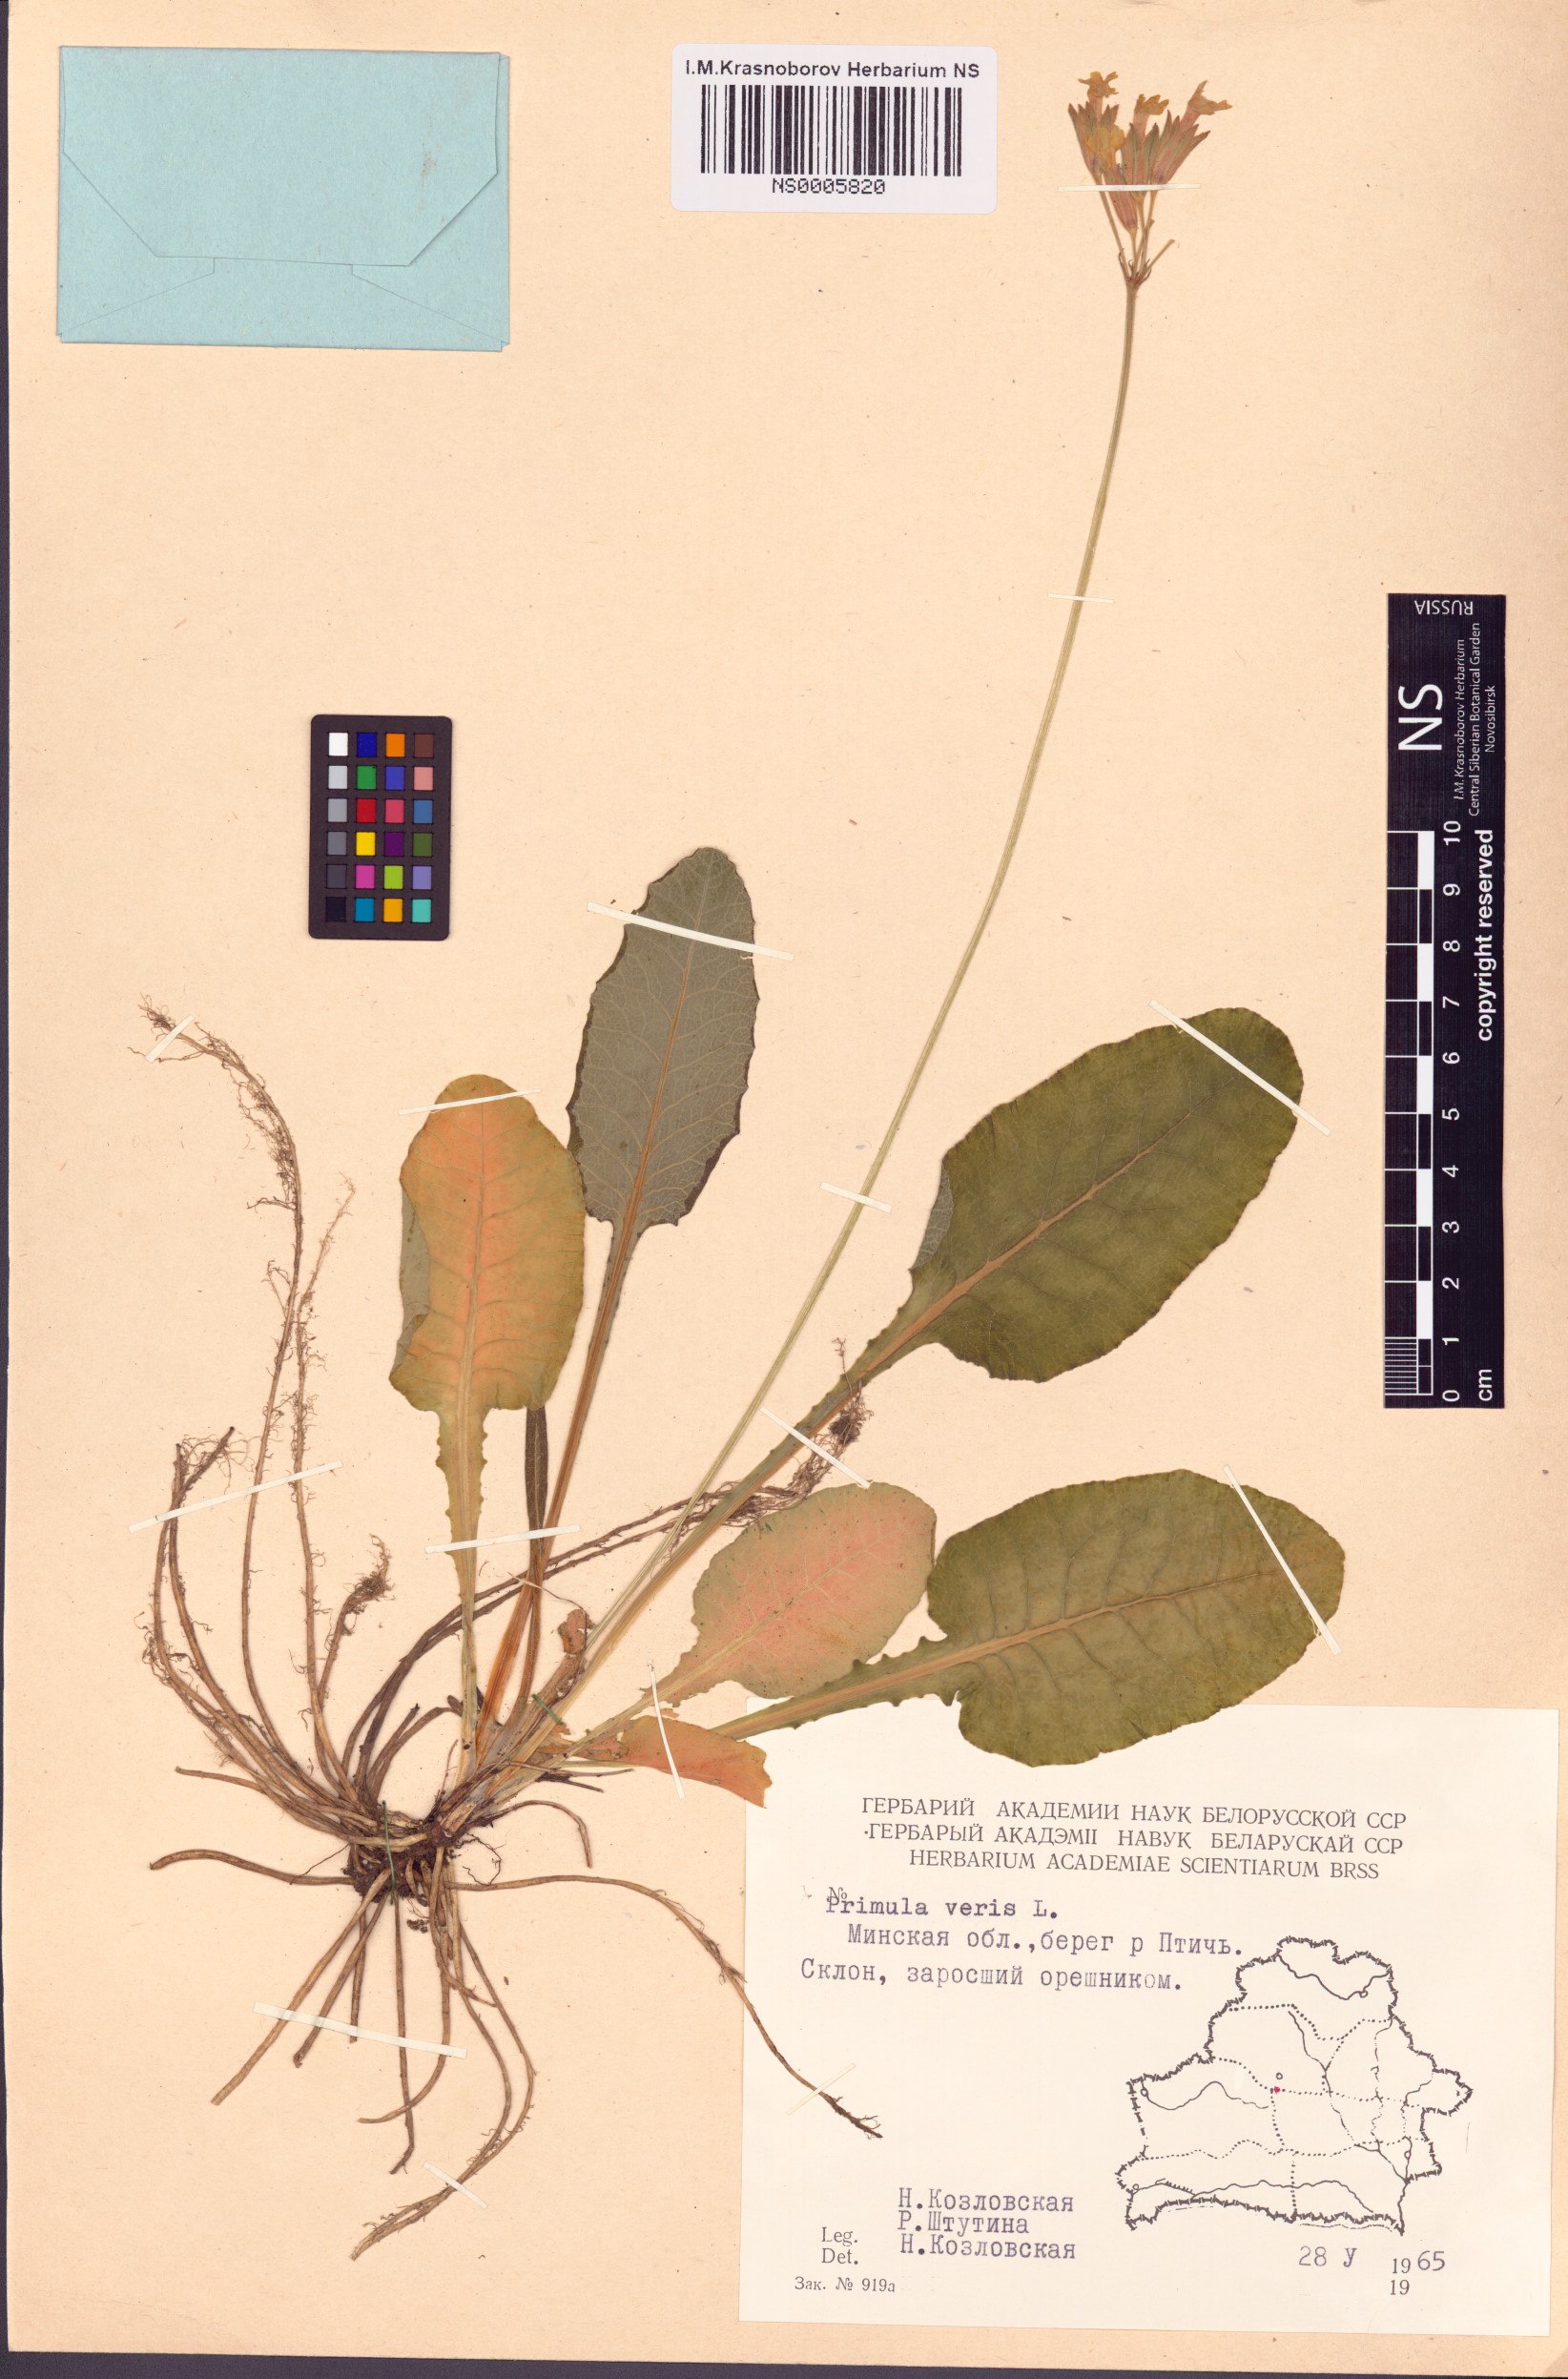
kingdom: Plantae
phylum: Tracheophyta
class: Magnoliopsida
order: Ericales
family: Primulaceae
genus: Primula
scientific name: Primula veris
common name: Cowslip
